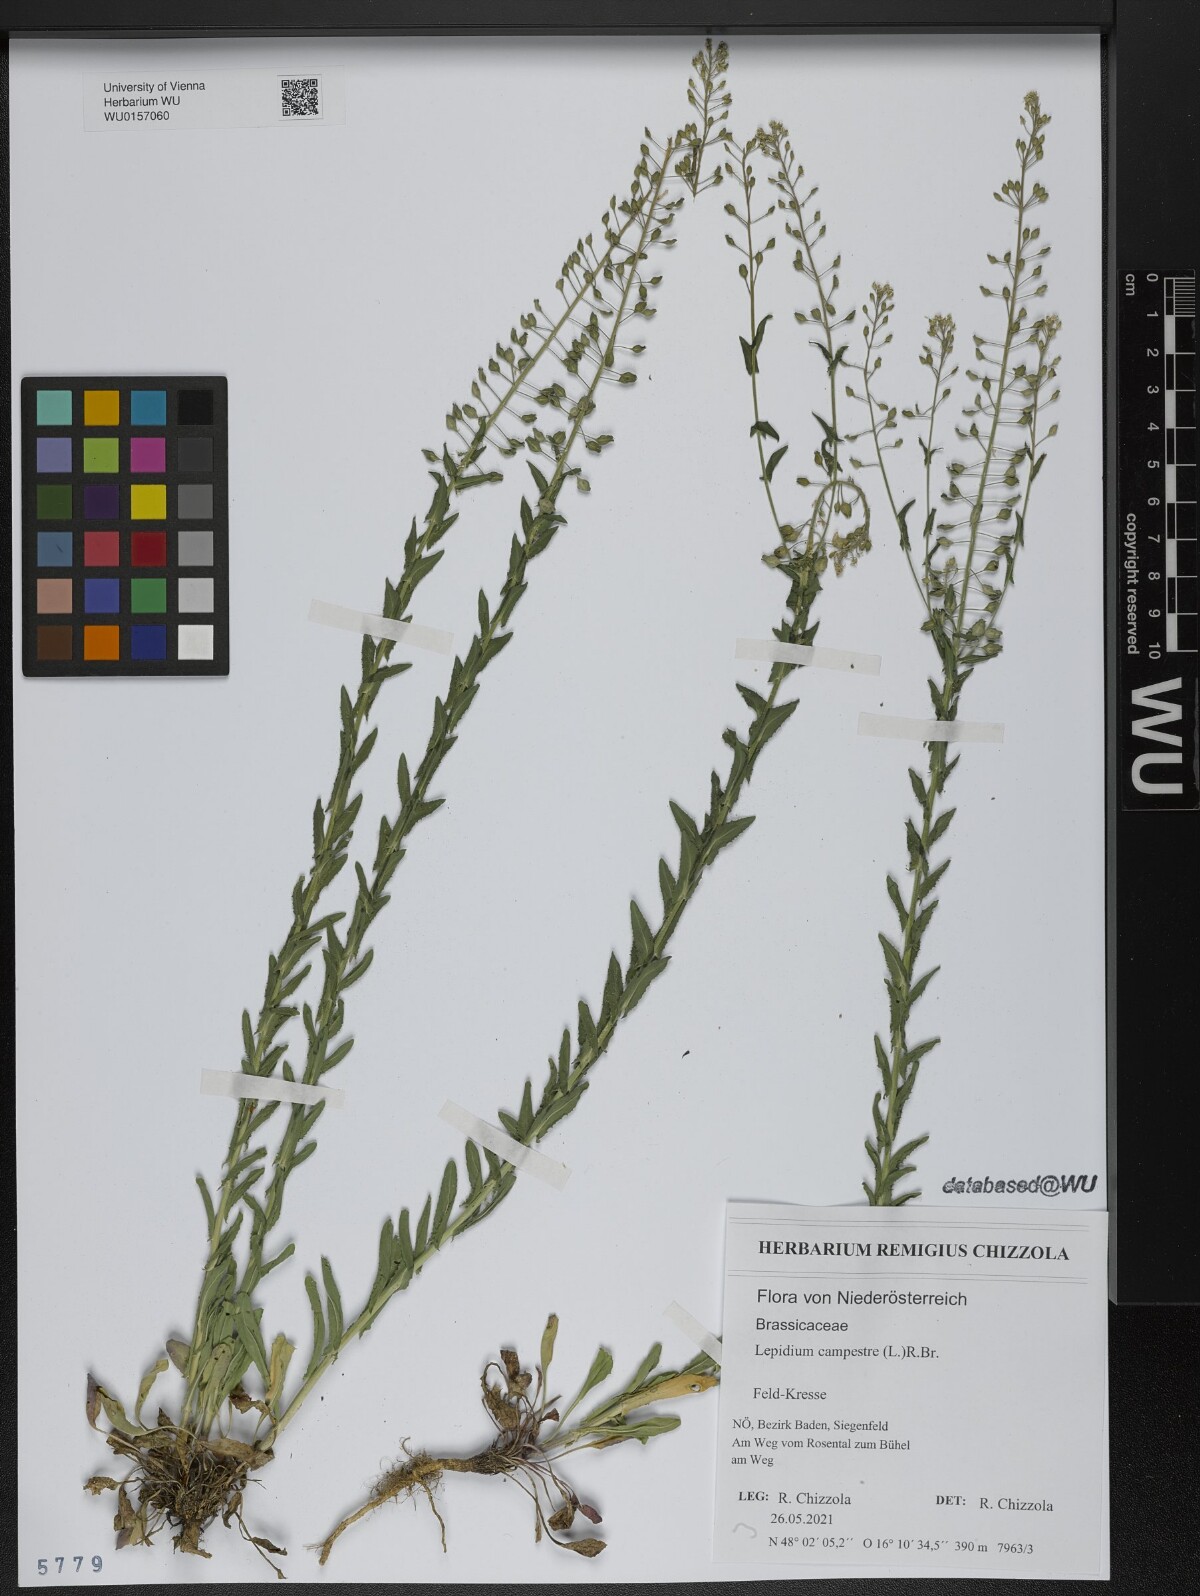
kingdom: Plantae
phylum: Tracheophyta
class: Magnoliopsida
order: Brassicales
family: Brassicaceae
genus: Lepidium
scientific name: Lepidium campestre
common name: Field pepperwort
